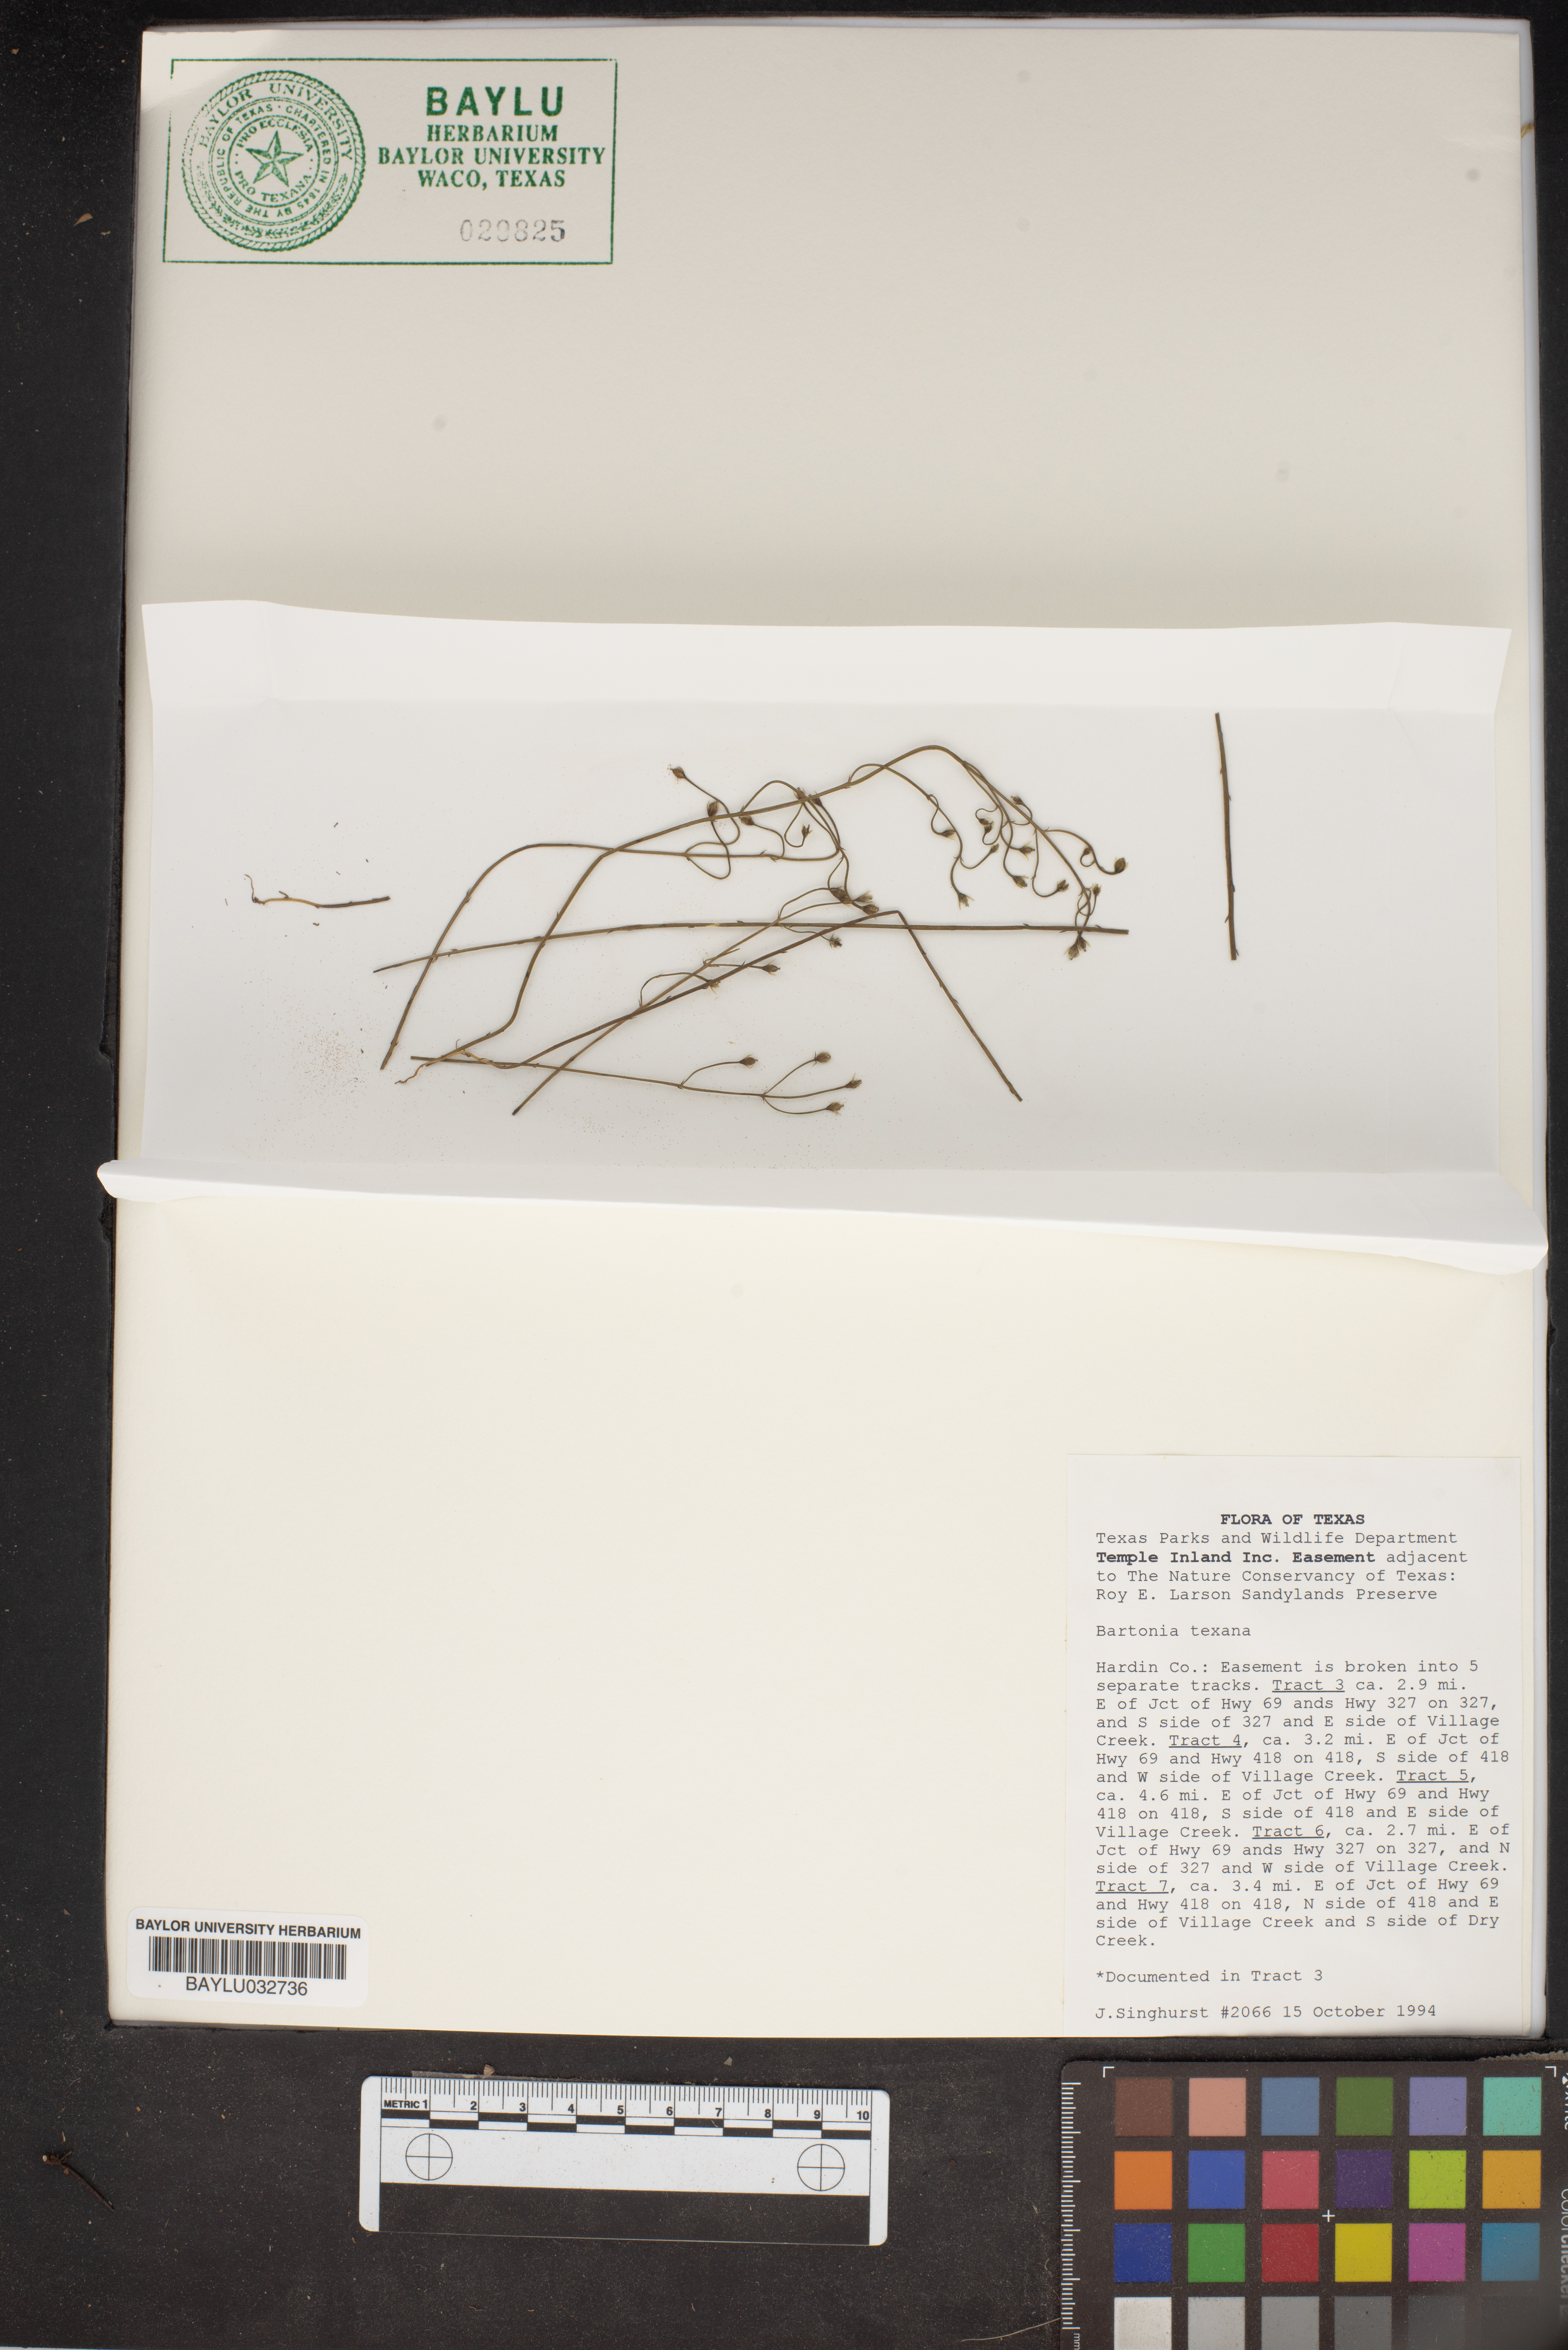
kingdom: Plantae
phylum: Tracheophyta
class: Magnoliopsida
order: Gentianales
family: Gentianaceae
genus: Bartonia
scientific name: Bartonia paniculata
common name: Branched bartonia
